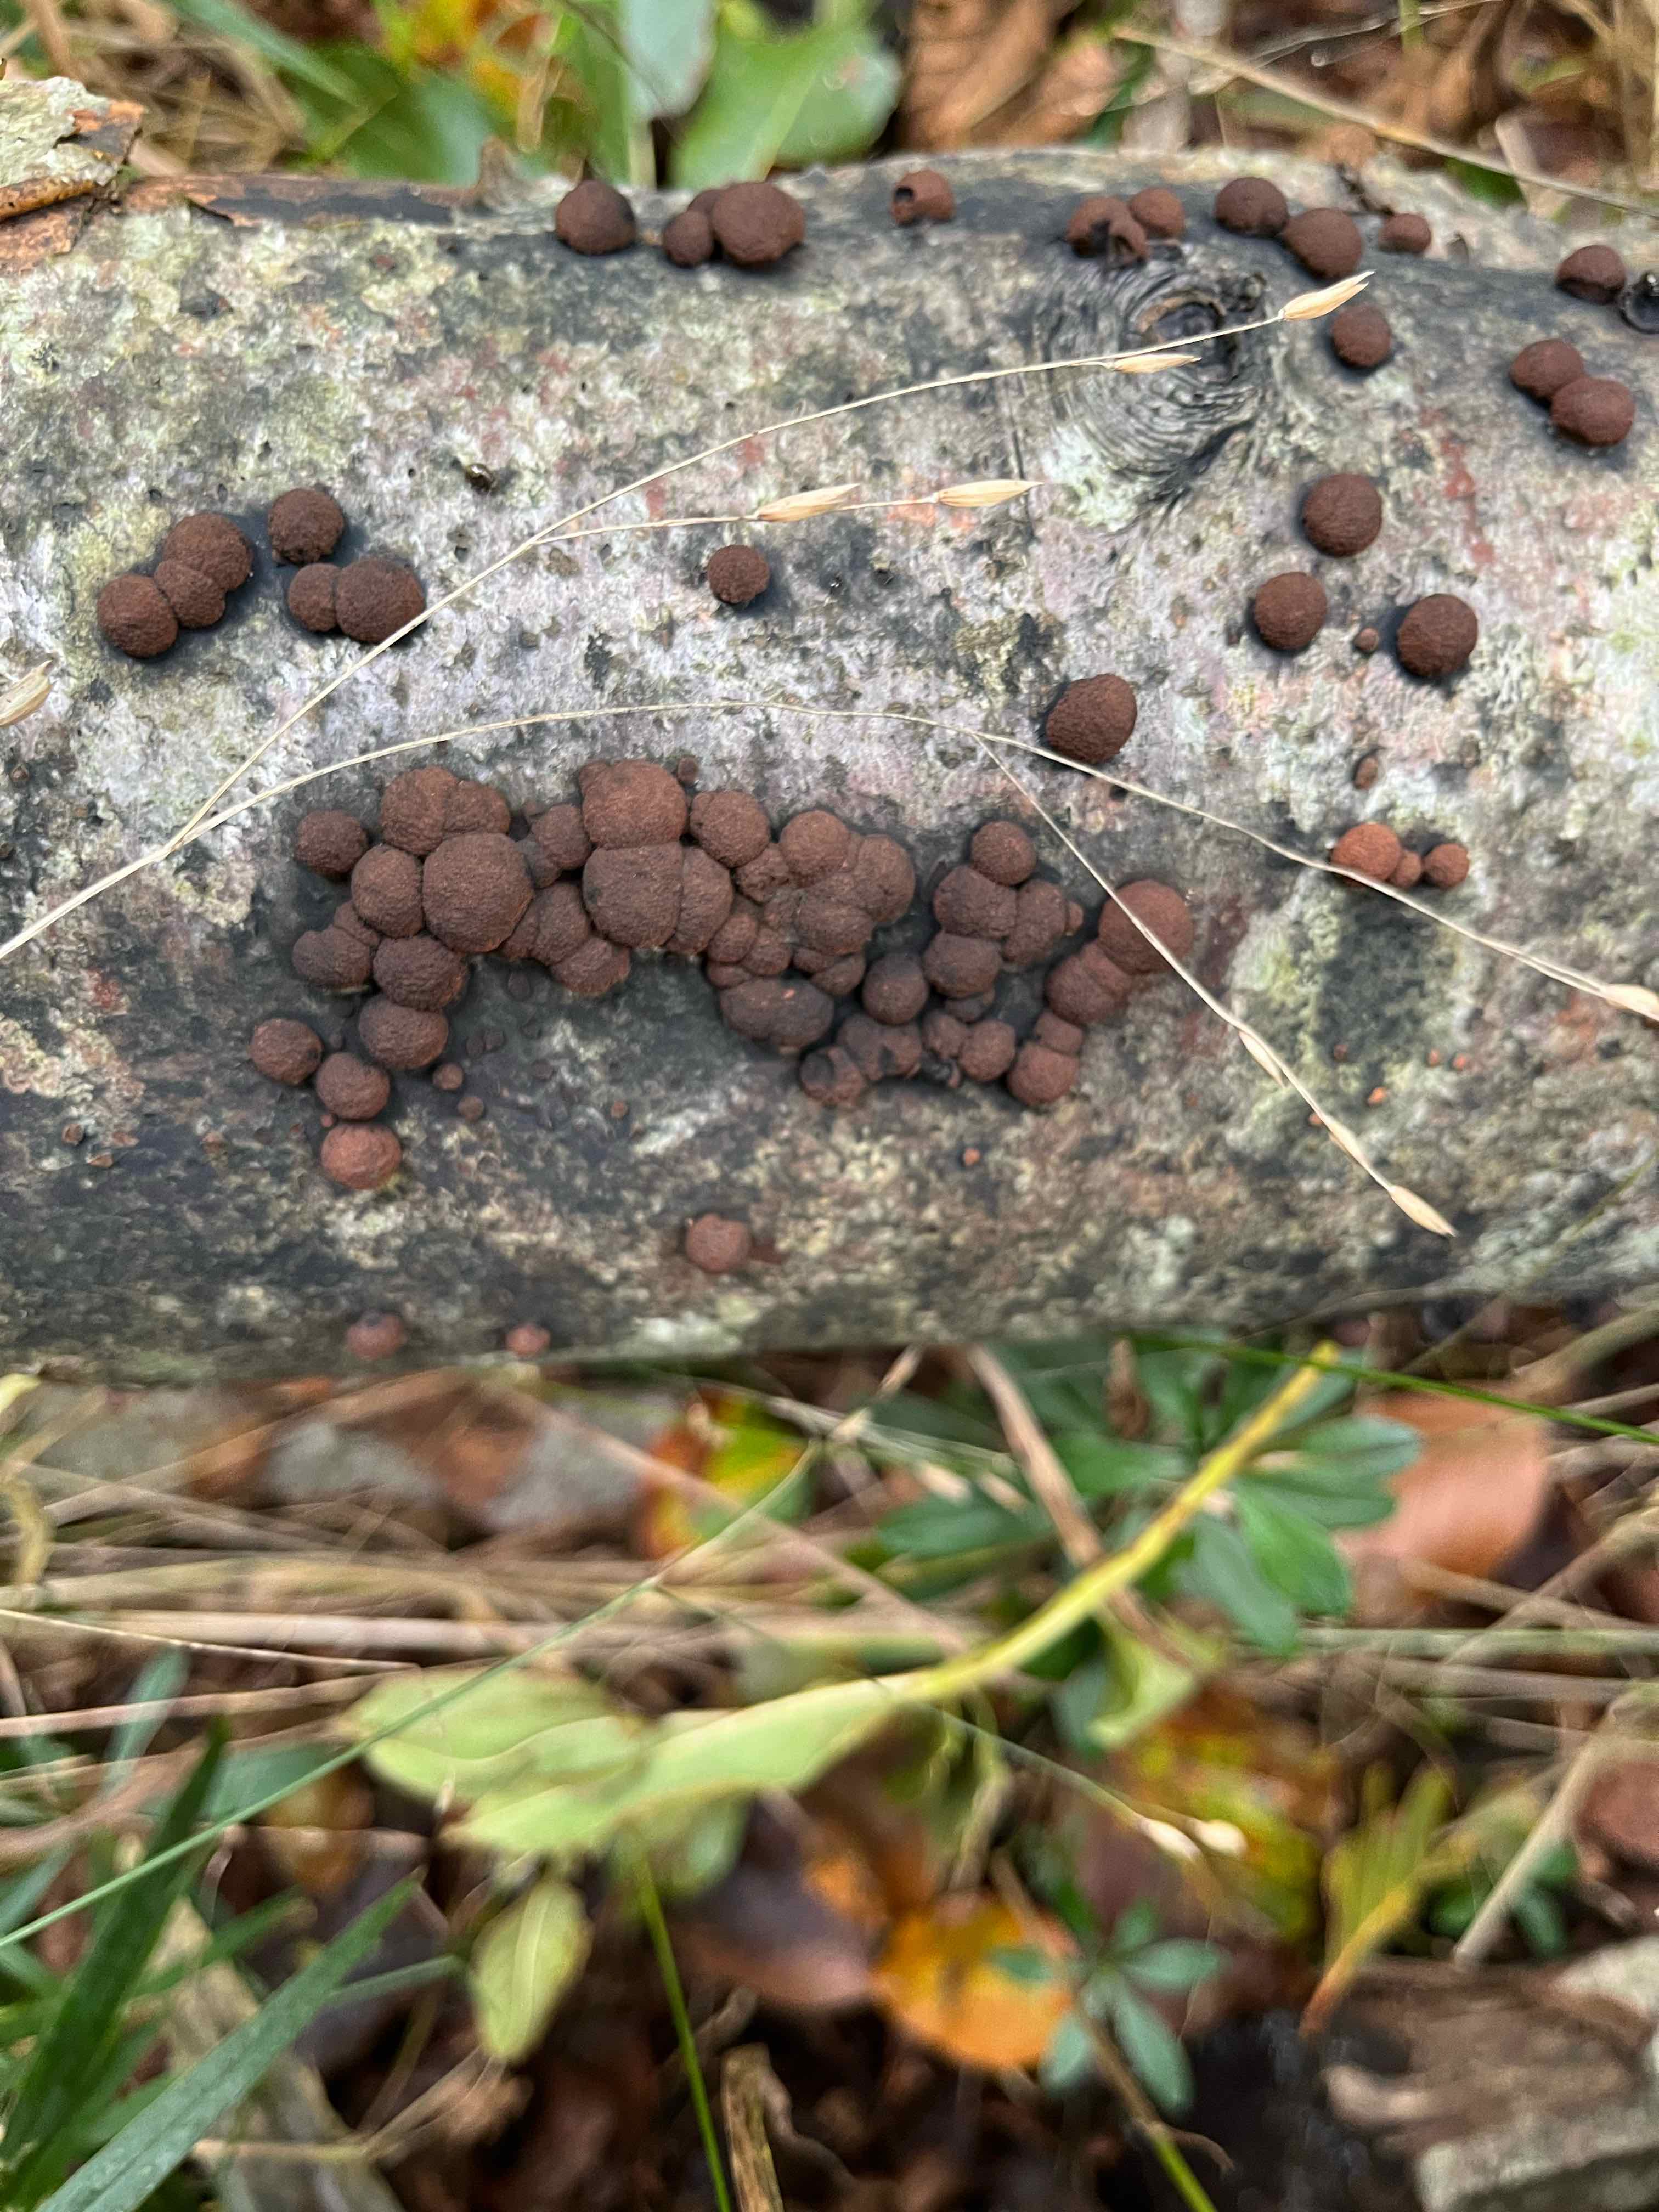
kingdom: Fungi
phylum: Ascomycota
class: Sordariomycetes
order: Xylariales
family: Hypoxylaceae
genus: Hypoxylon
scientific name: Hypoxylon fragiforme
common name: kuljordbær
